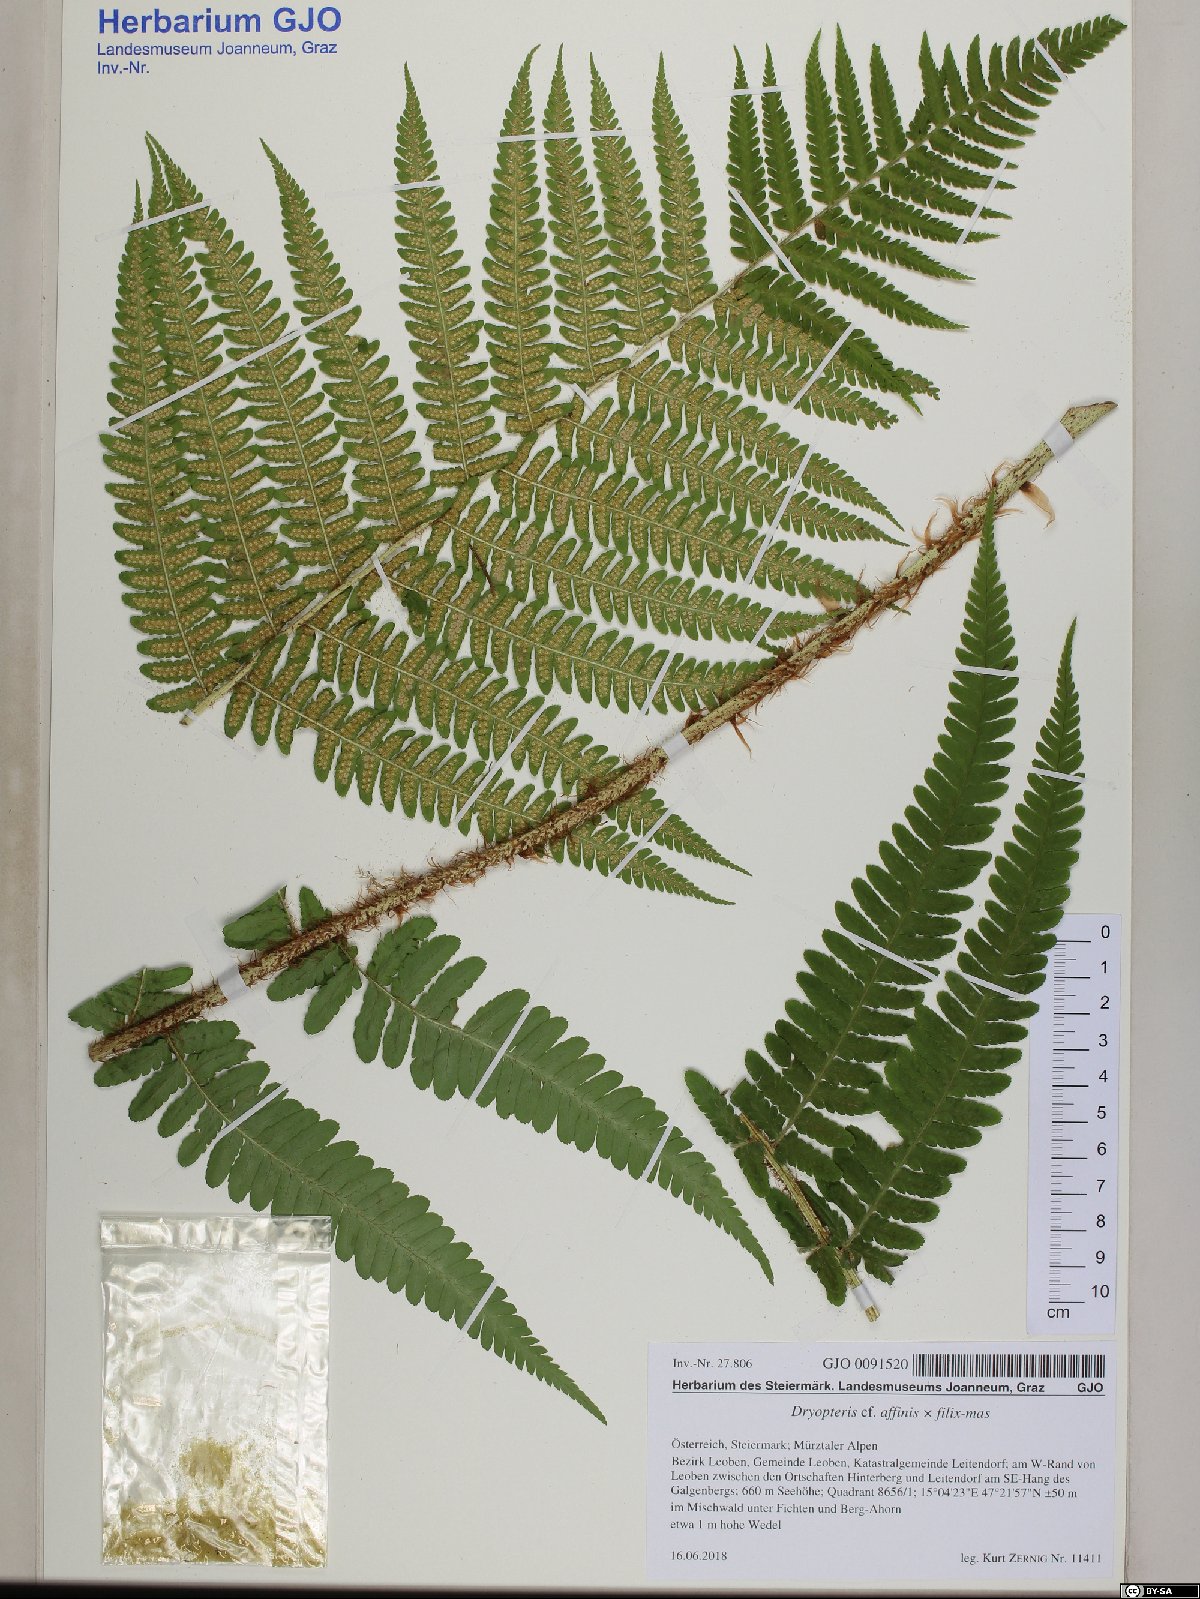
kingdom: Plantae
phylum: Tracheophyta
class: Polypodiopsida
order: Polypodiales
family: Dryopteridaceae
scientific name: Dryopteridaceae
